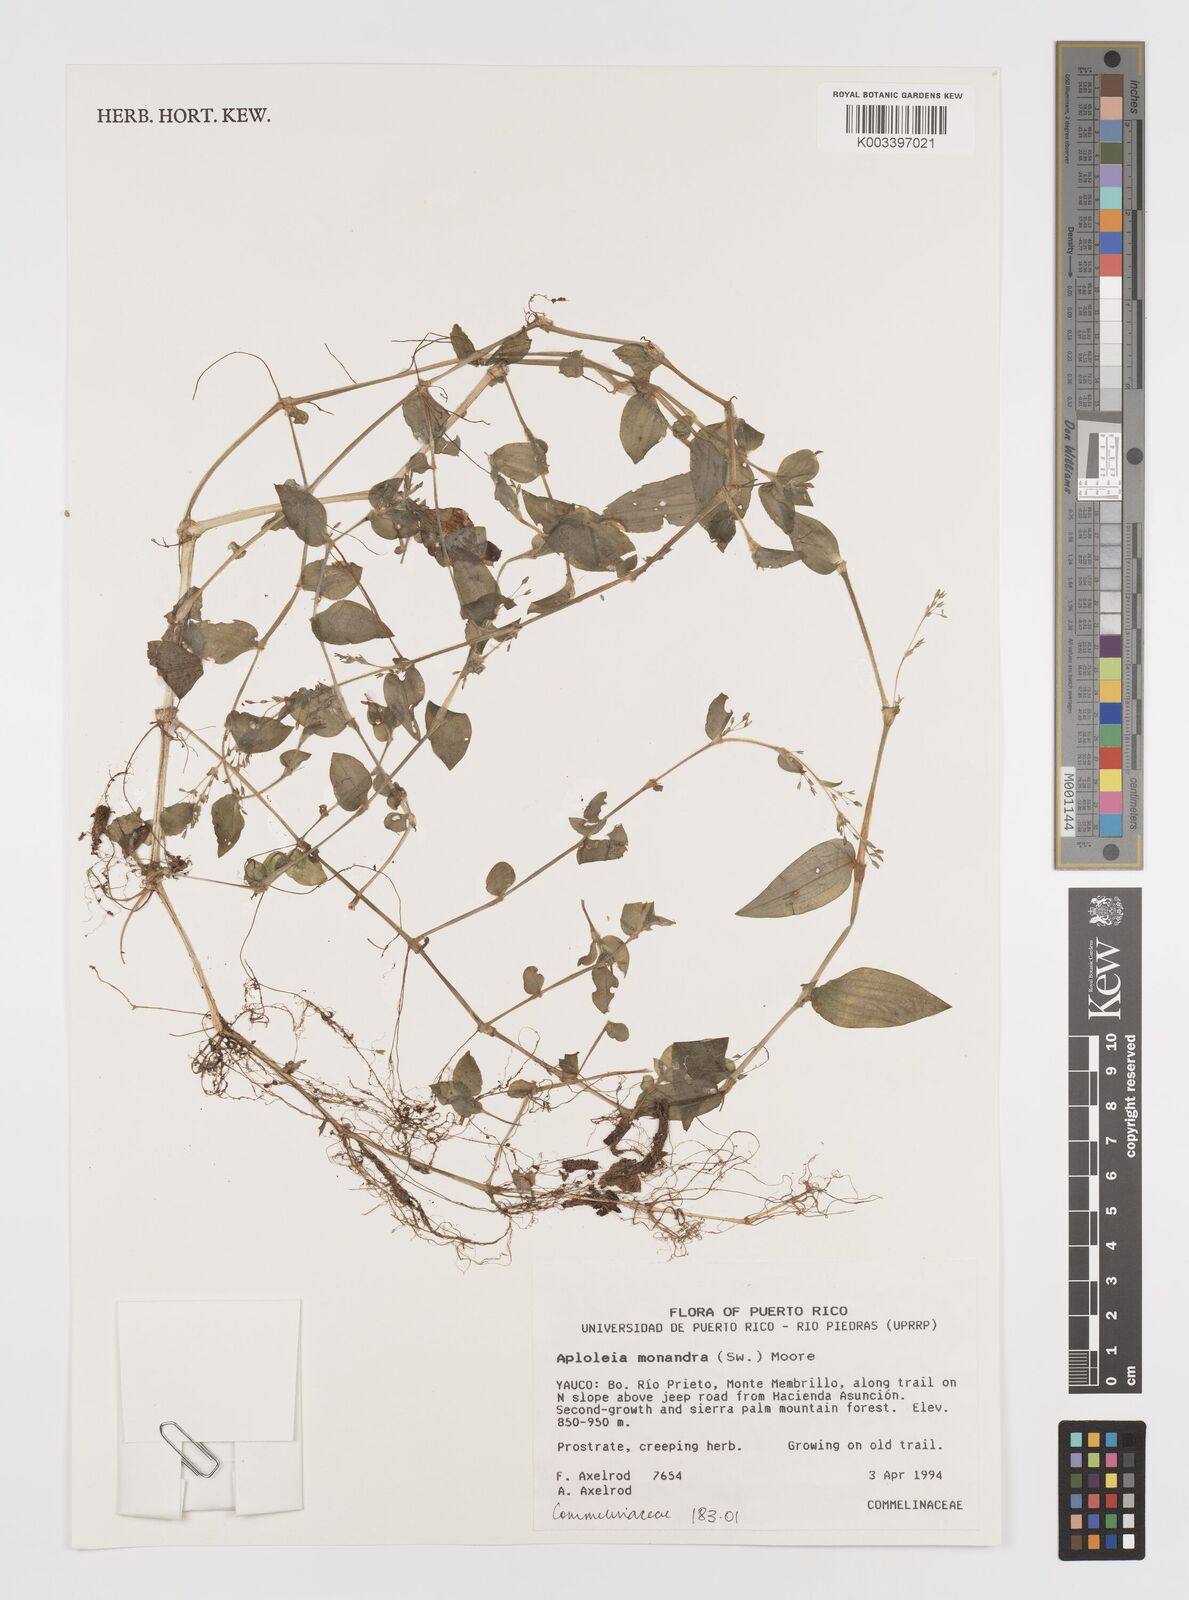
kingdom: Plantae
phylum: Tracheophyta
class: Liliopsida
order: Commelinales
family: Commelinaceae
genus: Callisia
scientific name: Callisia monandra
